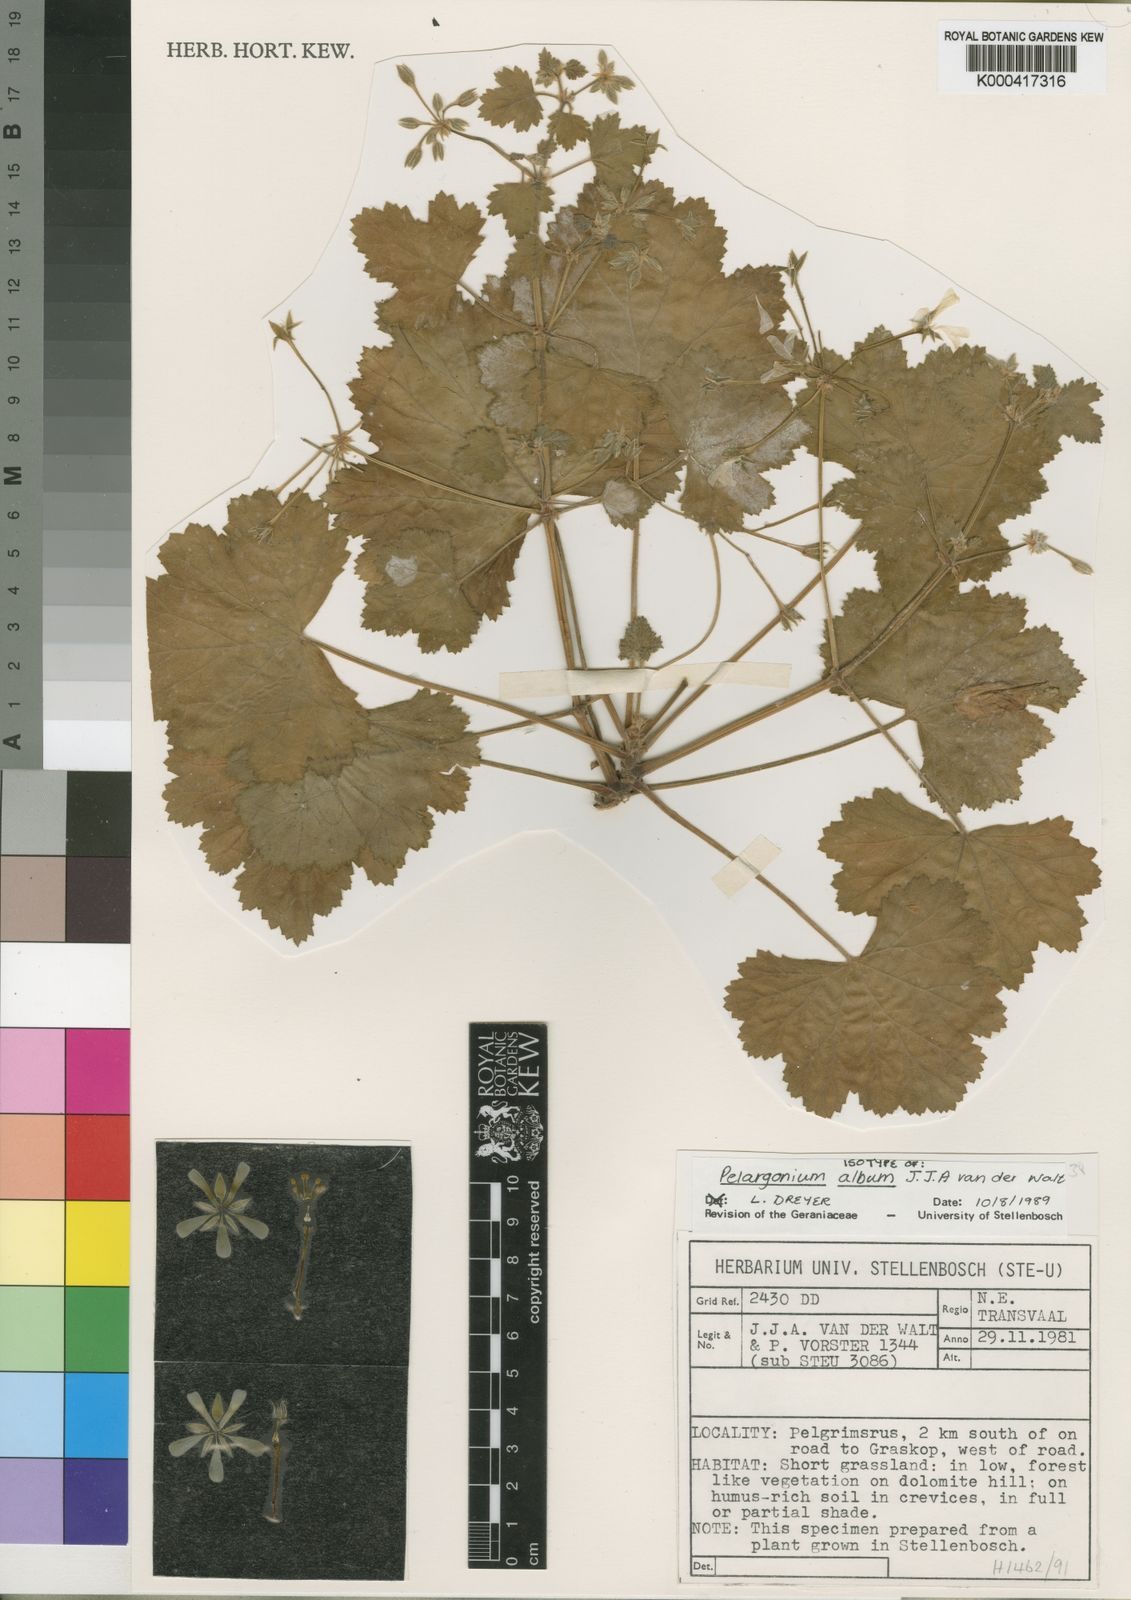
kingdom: Plantae
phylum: Tracheophyta
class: Magnoliopsida
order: Geraniales
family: Geraniaceae
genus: Pelargonium
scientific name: Pelargonium album
